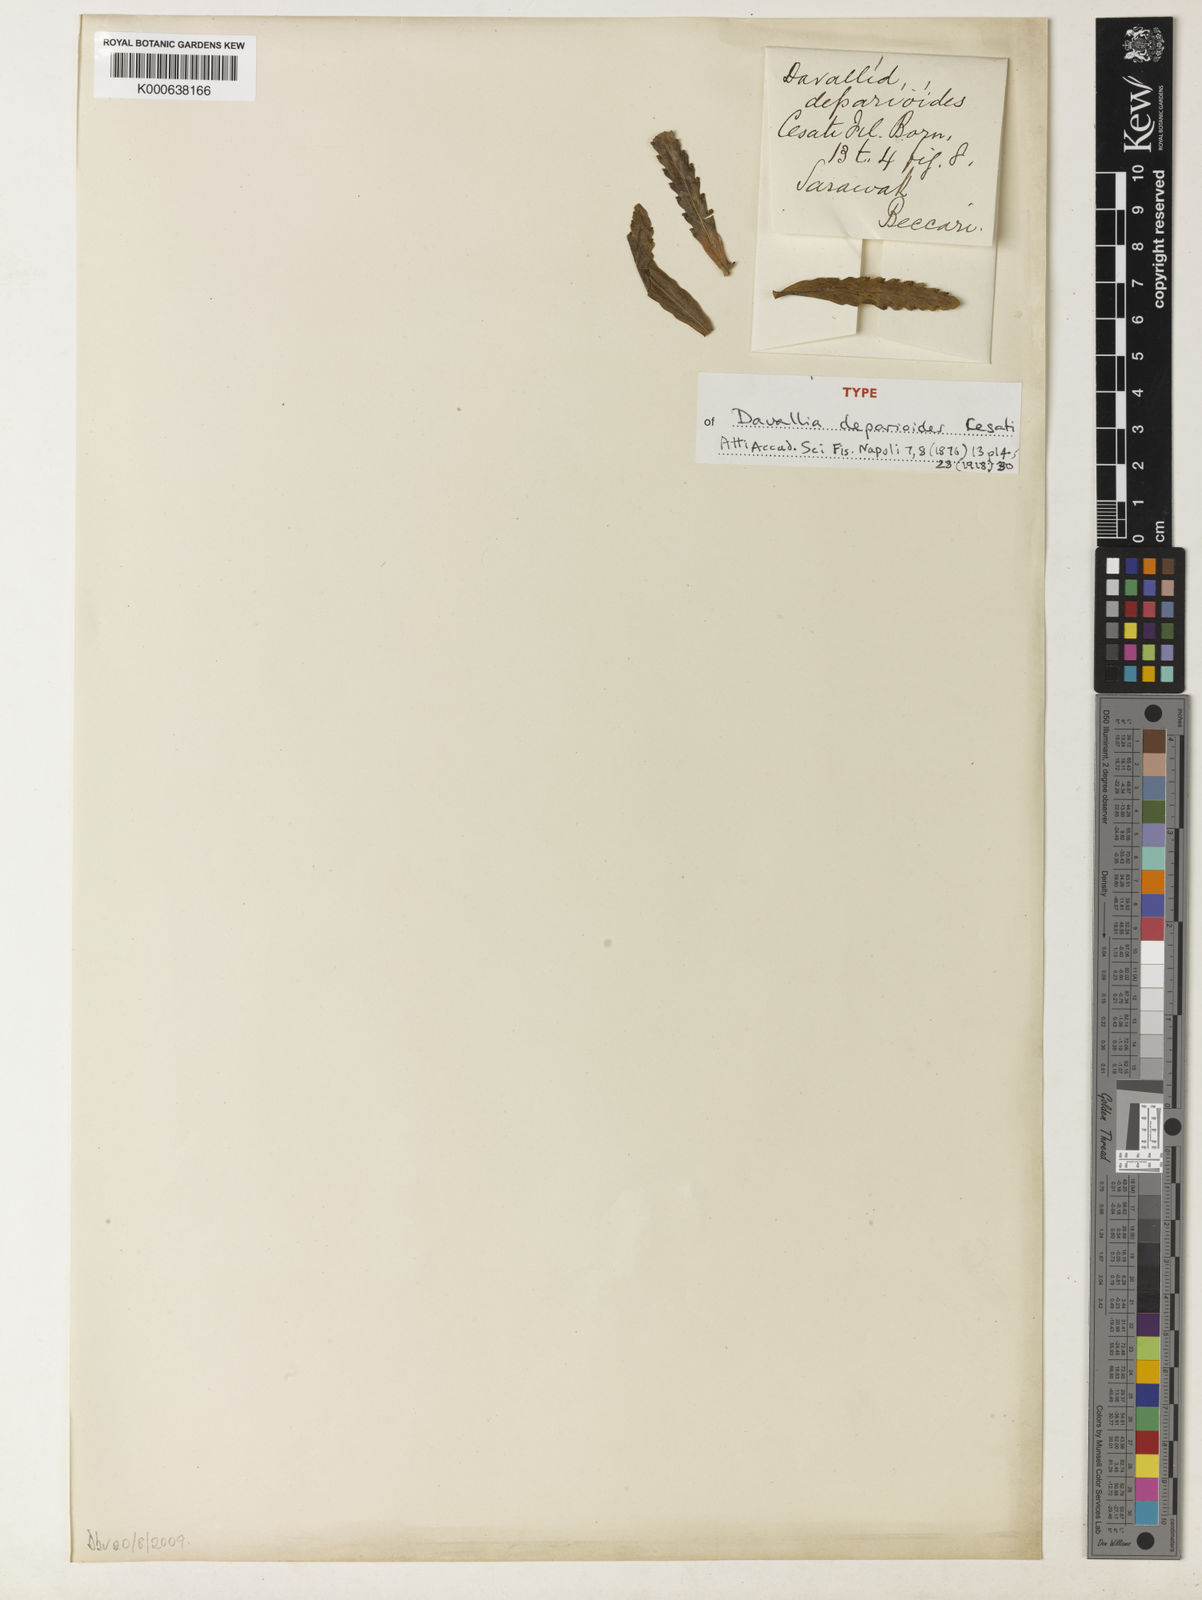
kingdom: Plantae
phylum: Tracheophyta
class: Polypodiopsida
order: Polypodiales
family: Polypodiaceae
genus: Lecanopteris
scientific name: Lecanopteris deparioides
